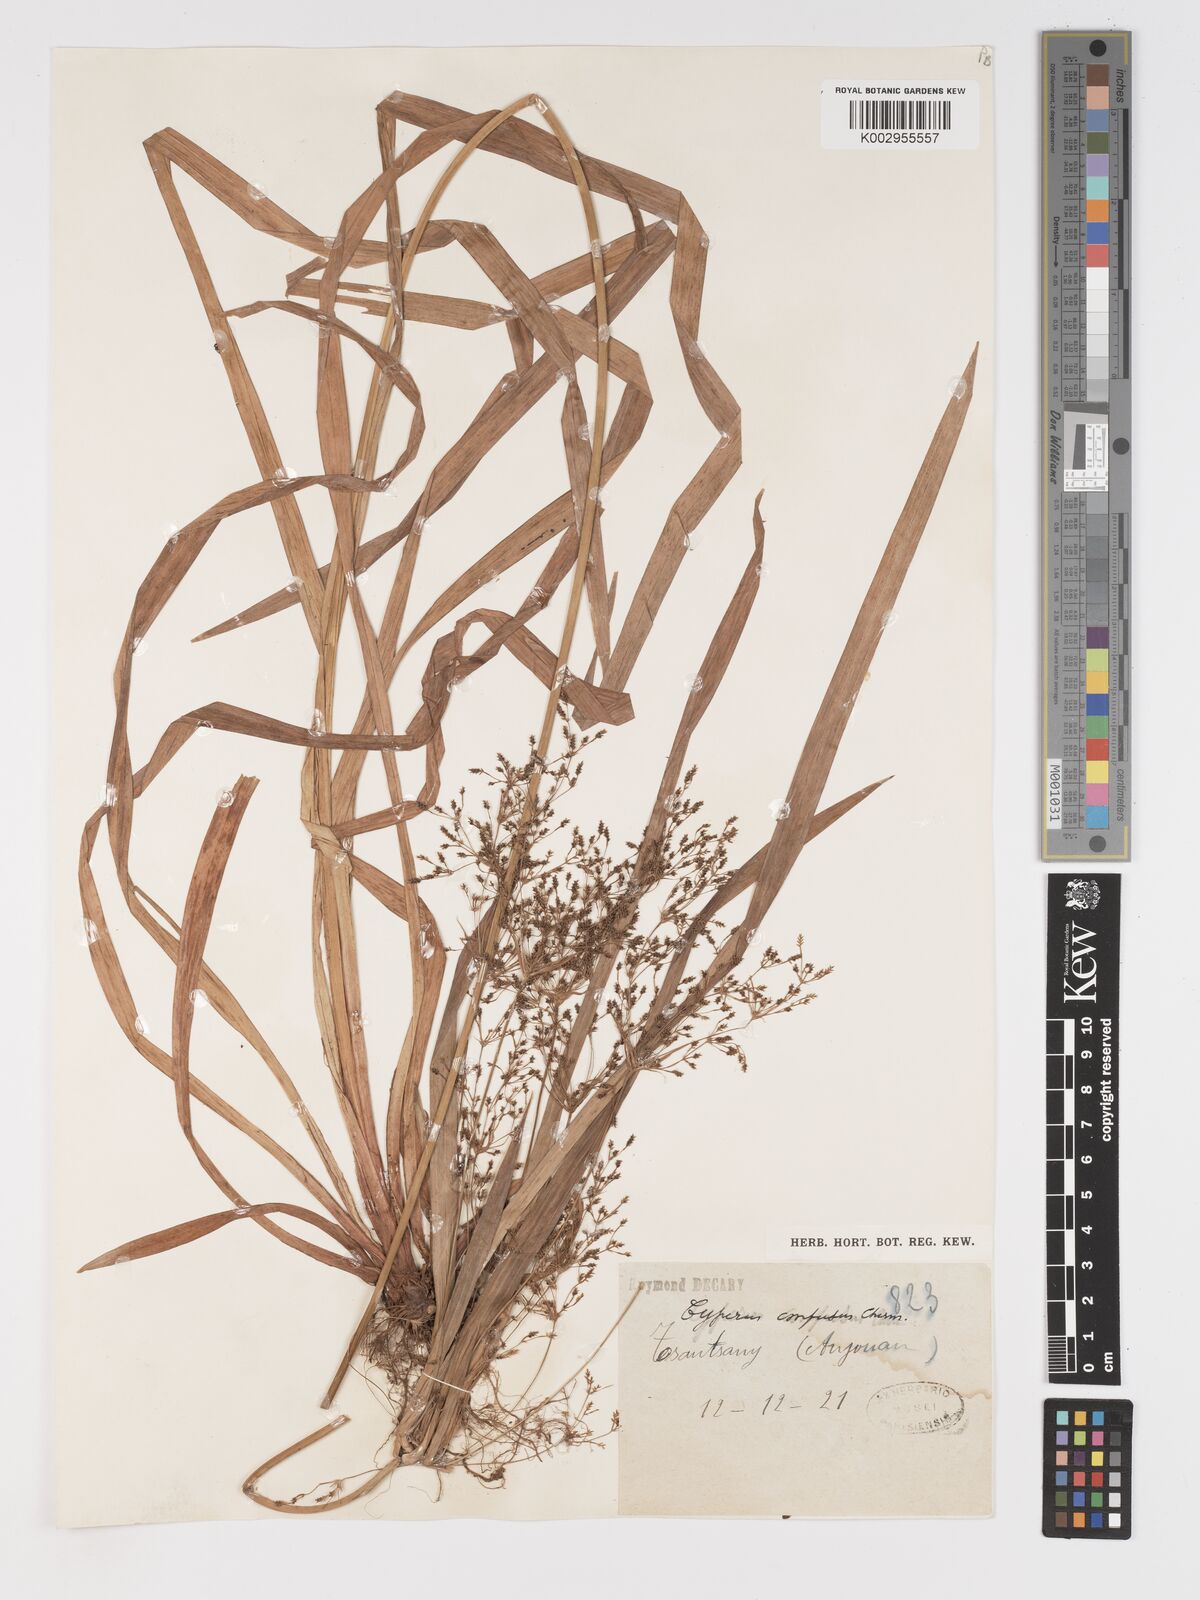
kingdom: Plantae
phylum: Tracheophyta
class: Liliopsida
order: Poales
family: Cyperaceae
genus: Cyperus
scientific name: Cyperus longifolius
